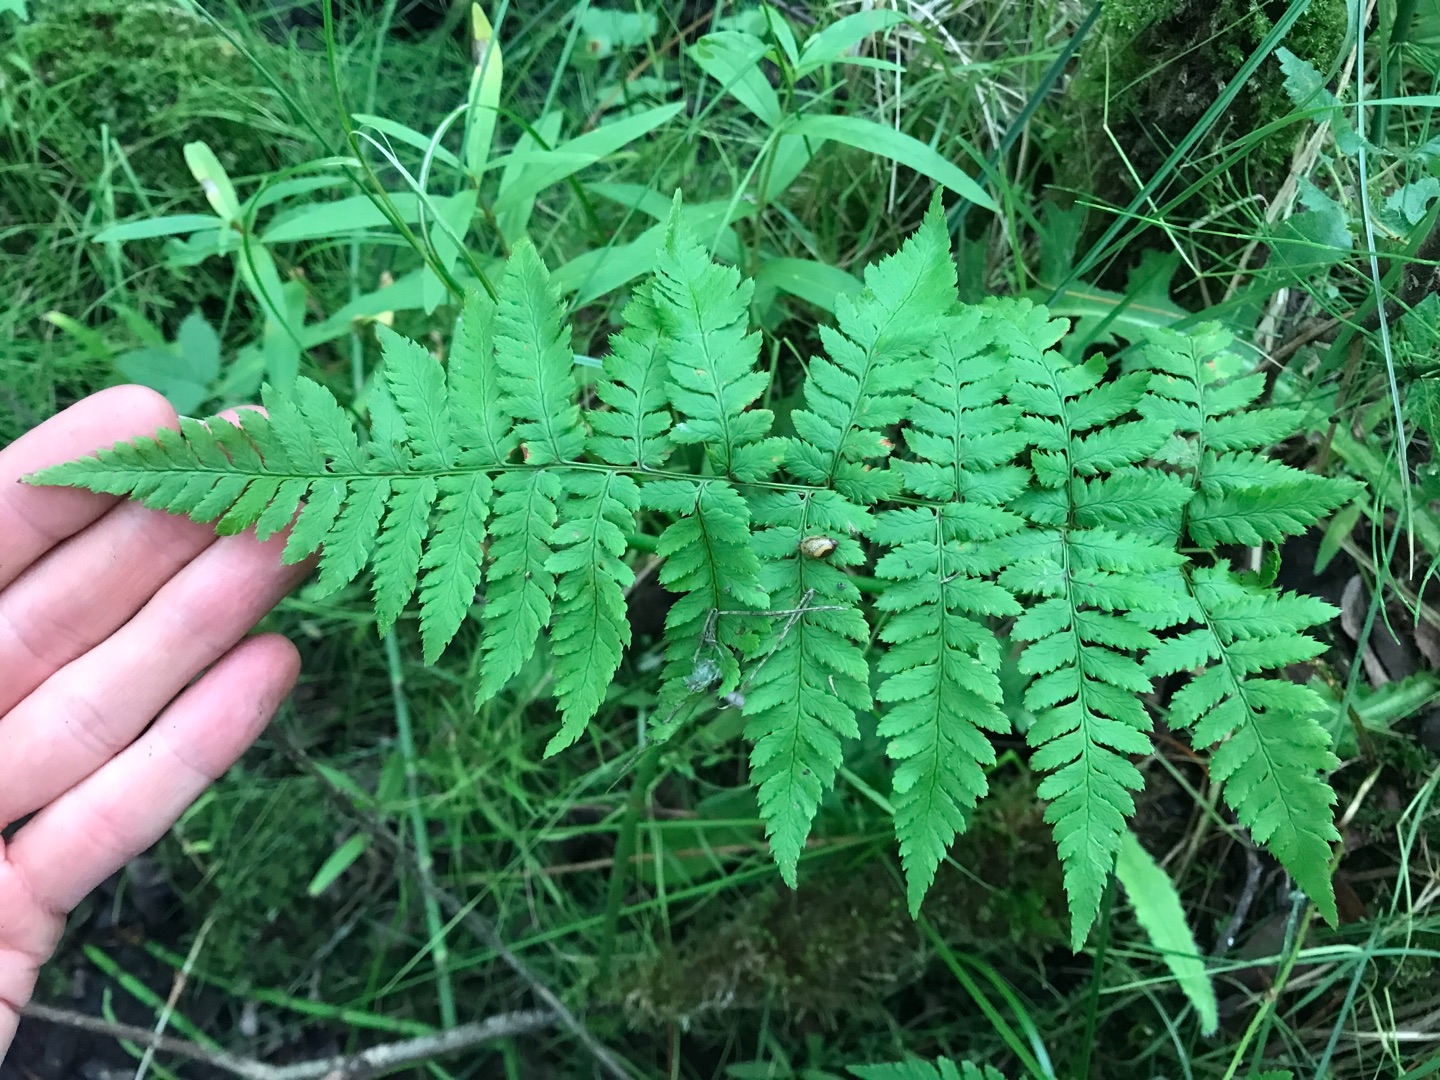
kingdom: Plantae
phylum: Tracheophyta
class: Polypodiopsida
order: Polypodiales
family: Dryopteridaceae
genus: Dryopteris
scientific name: Dryopteris carthusiana
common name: Smalbladet mangeløv
